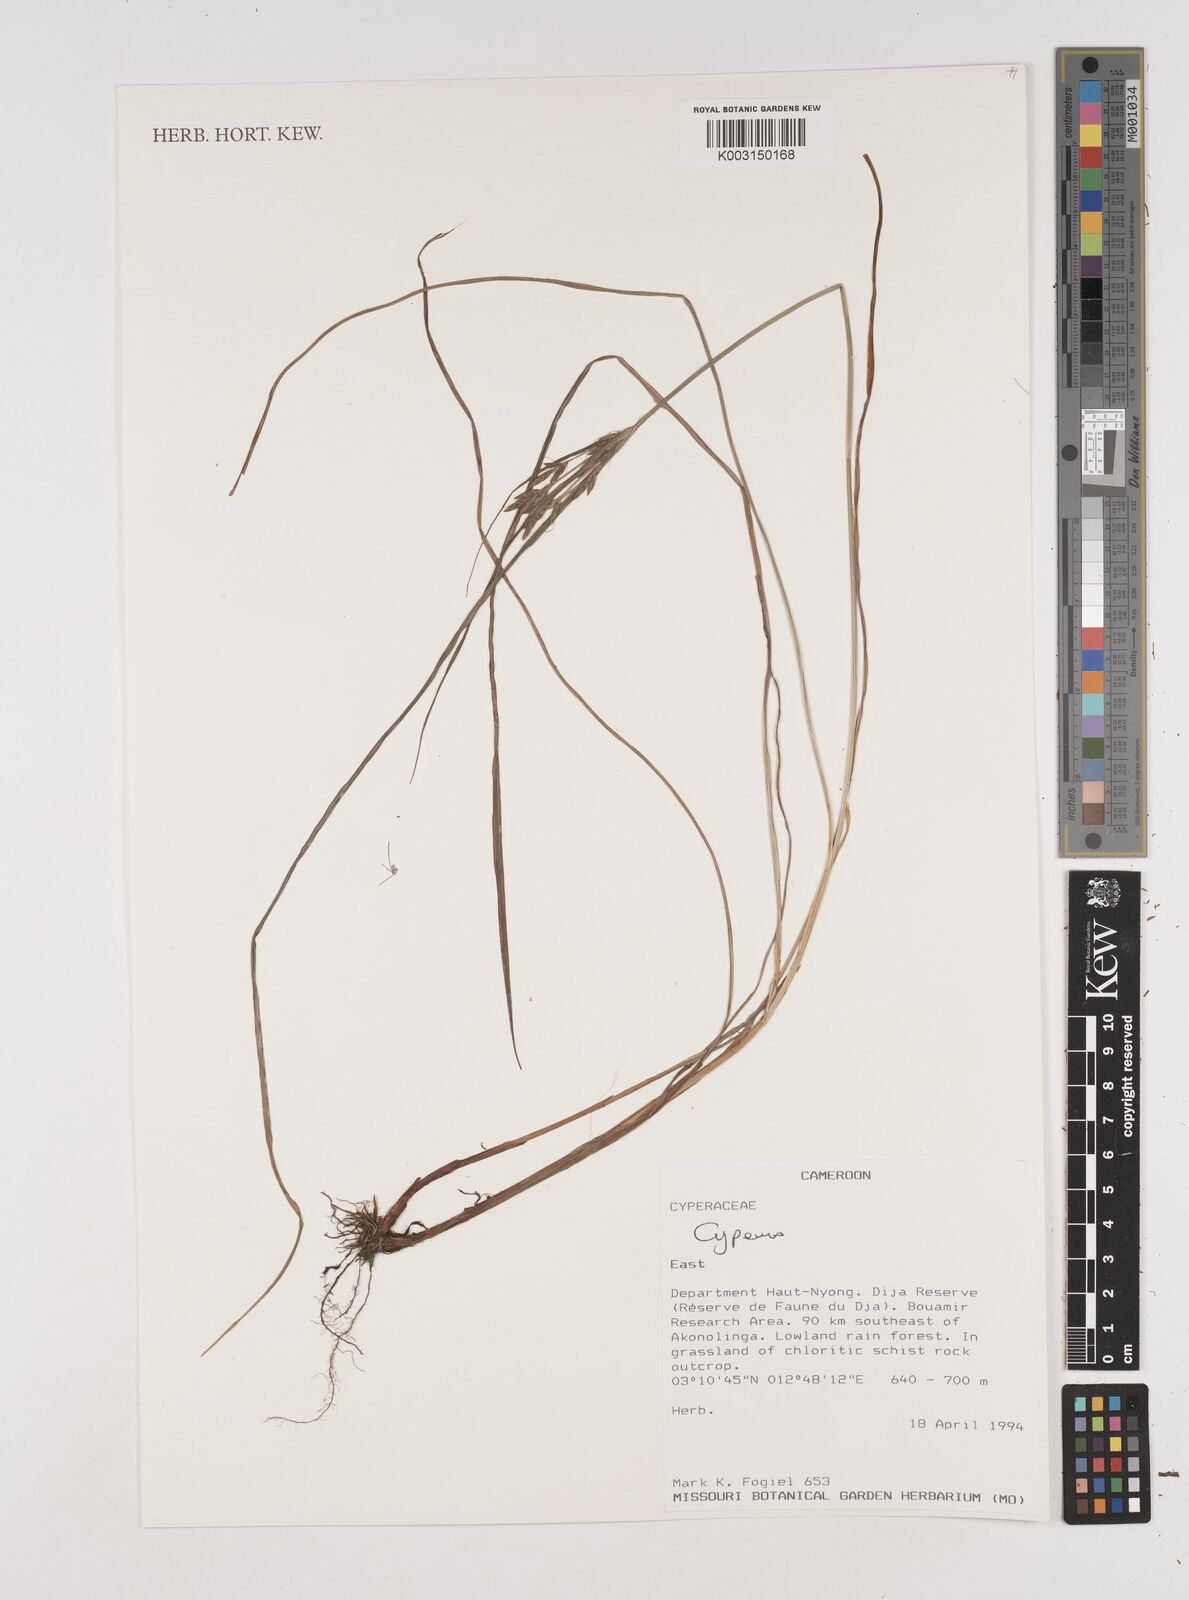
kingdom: Plantae
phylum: Tracheophyta
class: Liliopsida
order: Poales
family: Cyperaceae
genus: Cyperus
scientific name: Cyperus
